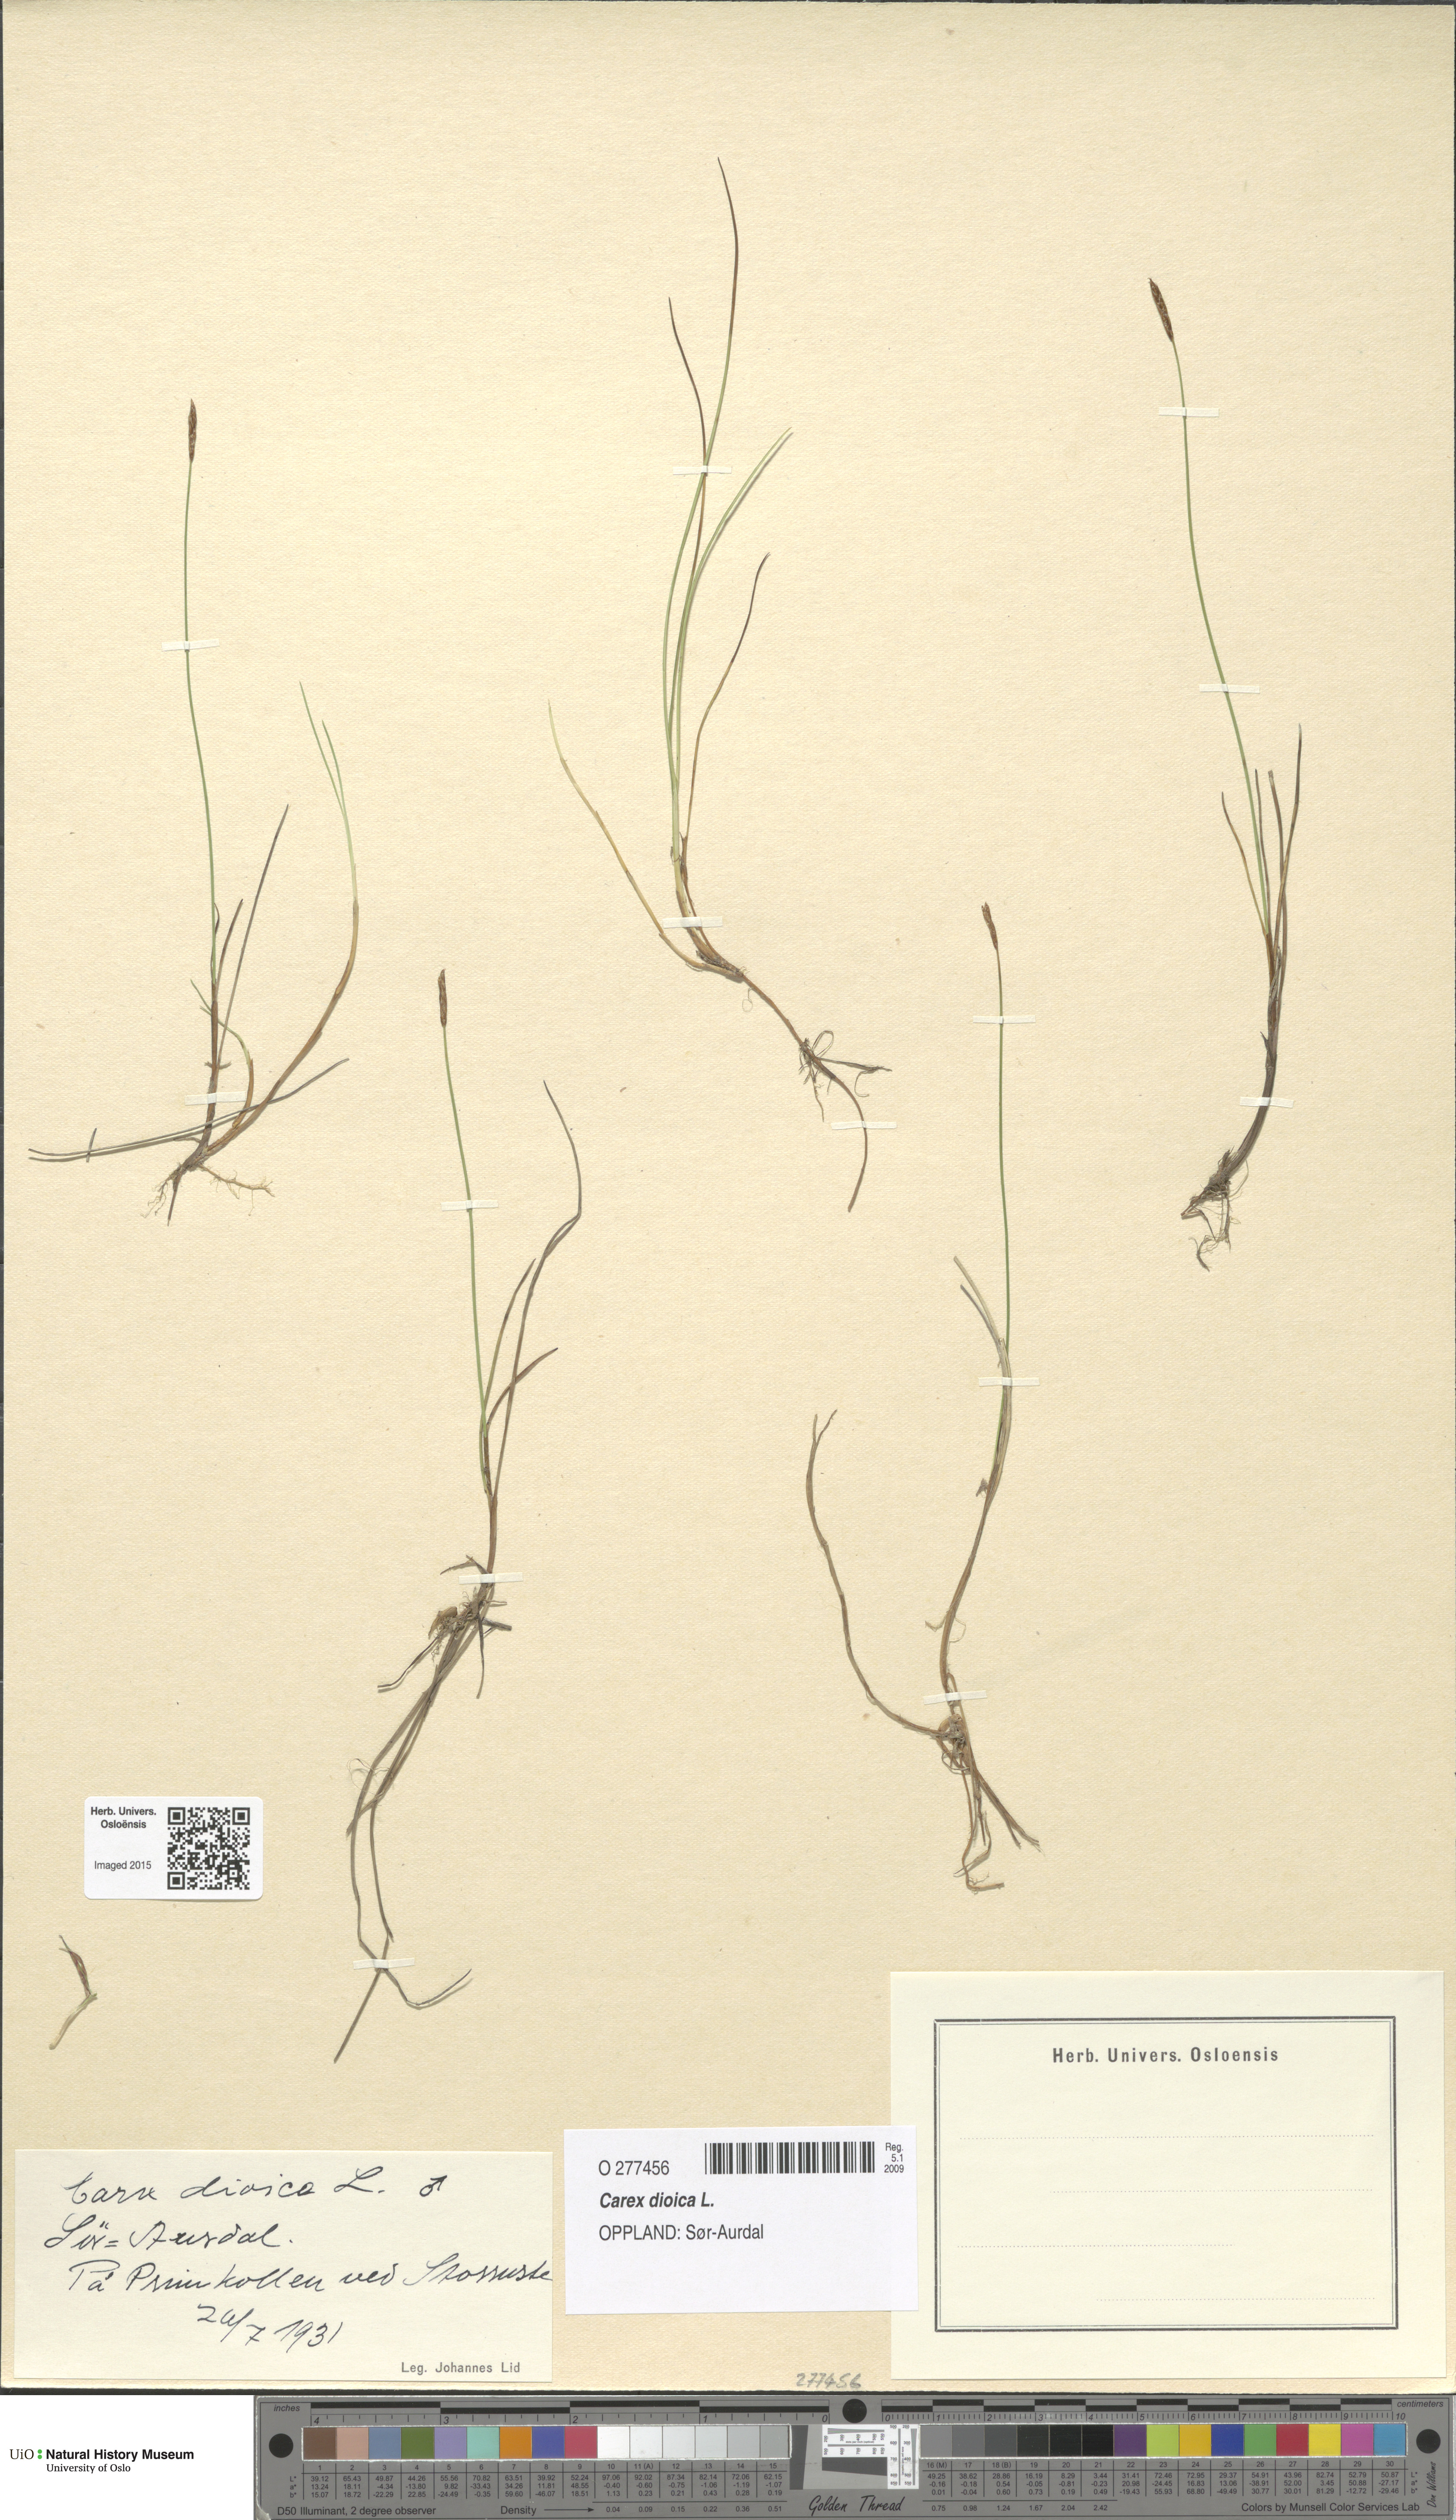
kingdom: Plantae
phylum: Tracheophyta
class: Liliopsida
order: Poales
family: Cyperaceae
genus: Carex
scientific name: Carex dioica
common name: Dioecious sedge
